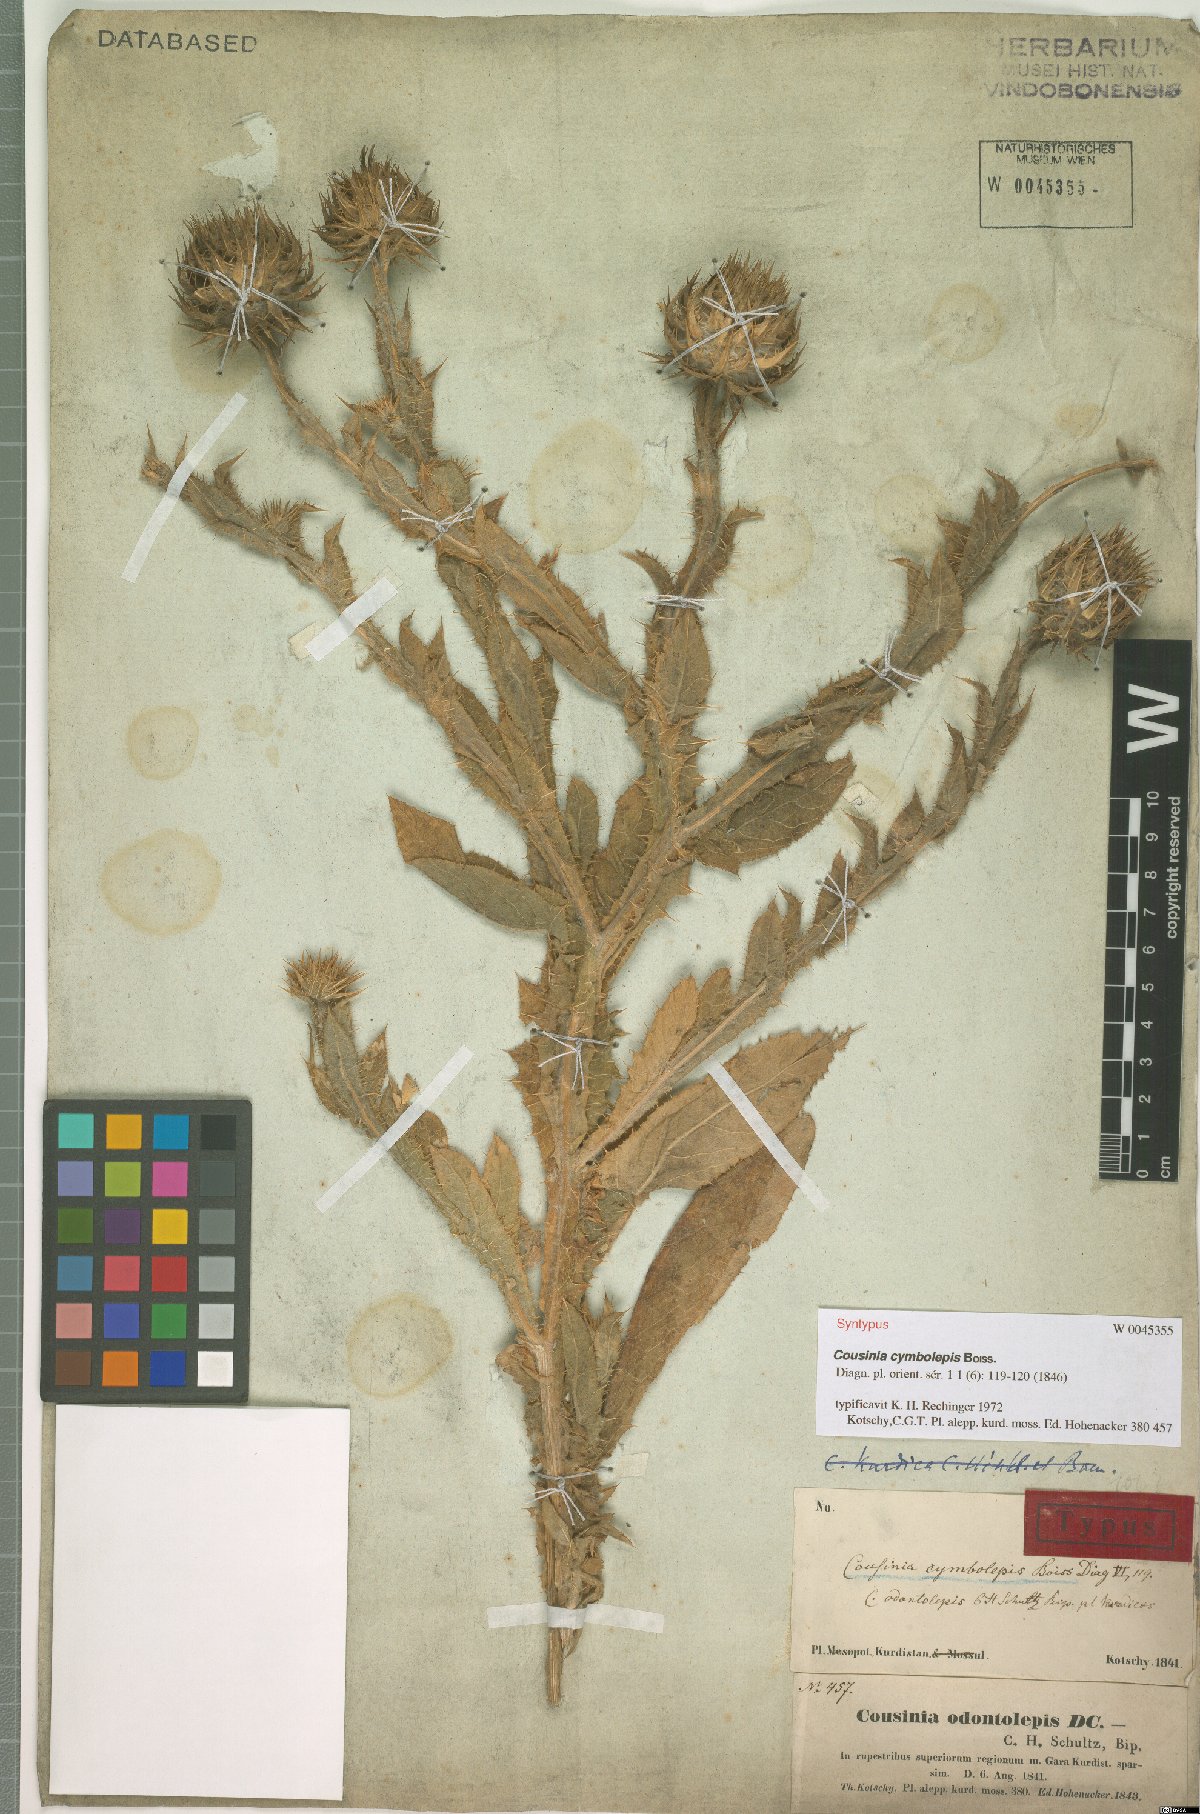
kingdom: Plantae
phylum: Tracheophyta
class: Magnoliopsida
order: Asterales
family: Asteraceae
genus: Cousinia
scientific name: Cousinia odontolepis
